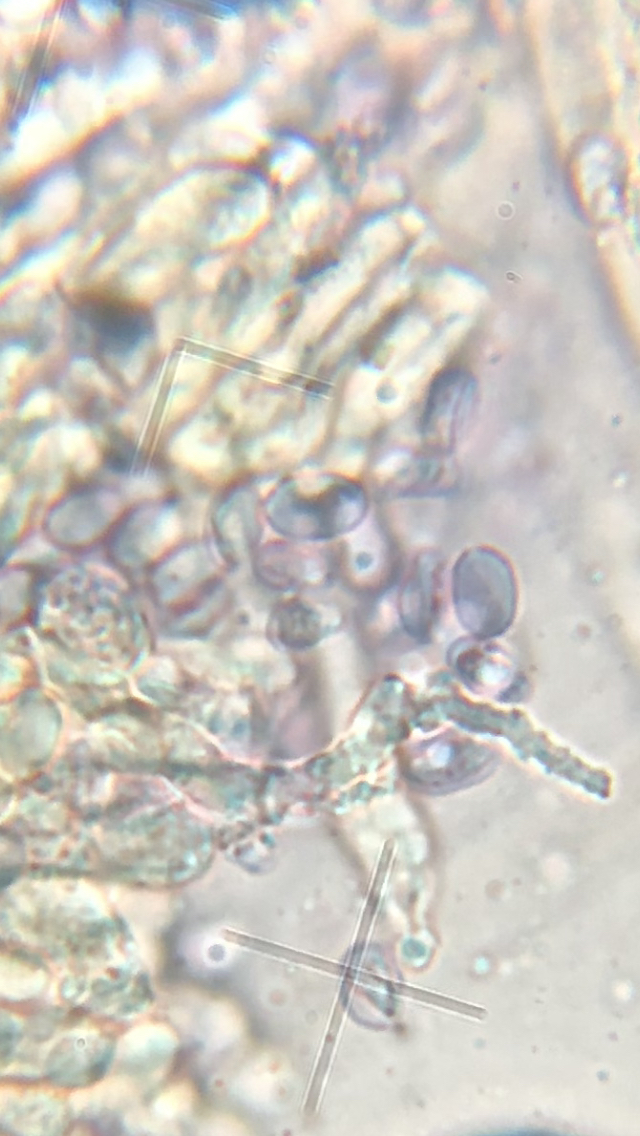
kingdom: Fungi
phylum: Basidiomycota
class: Agaricomycetes
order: Agaricales
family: Clavariaceae
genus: Mucronella
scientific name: Mucronella bresadolae
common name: knippe-hængepig
